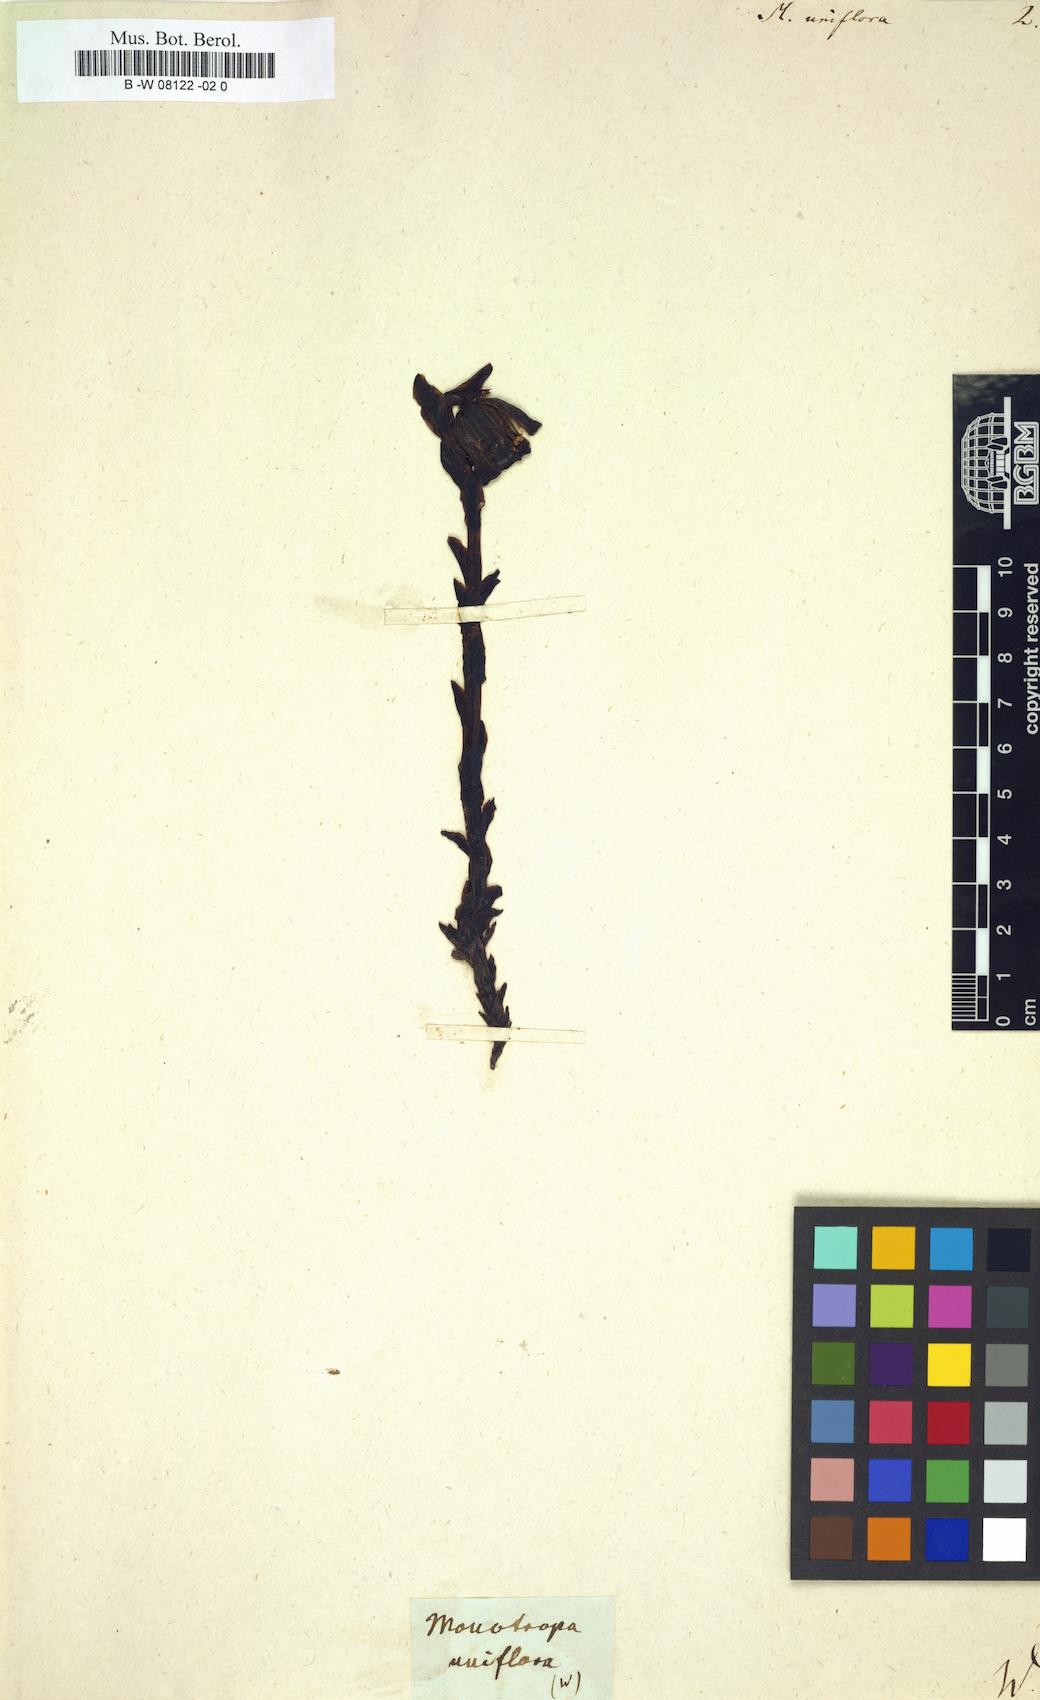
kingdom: Plantae
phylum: Tracheophyta
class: Magnoliopsida
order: Ericales
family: Ericaceae
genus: Monotropa
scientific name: Monotropa uniflora
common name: Convulsion root
